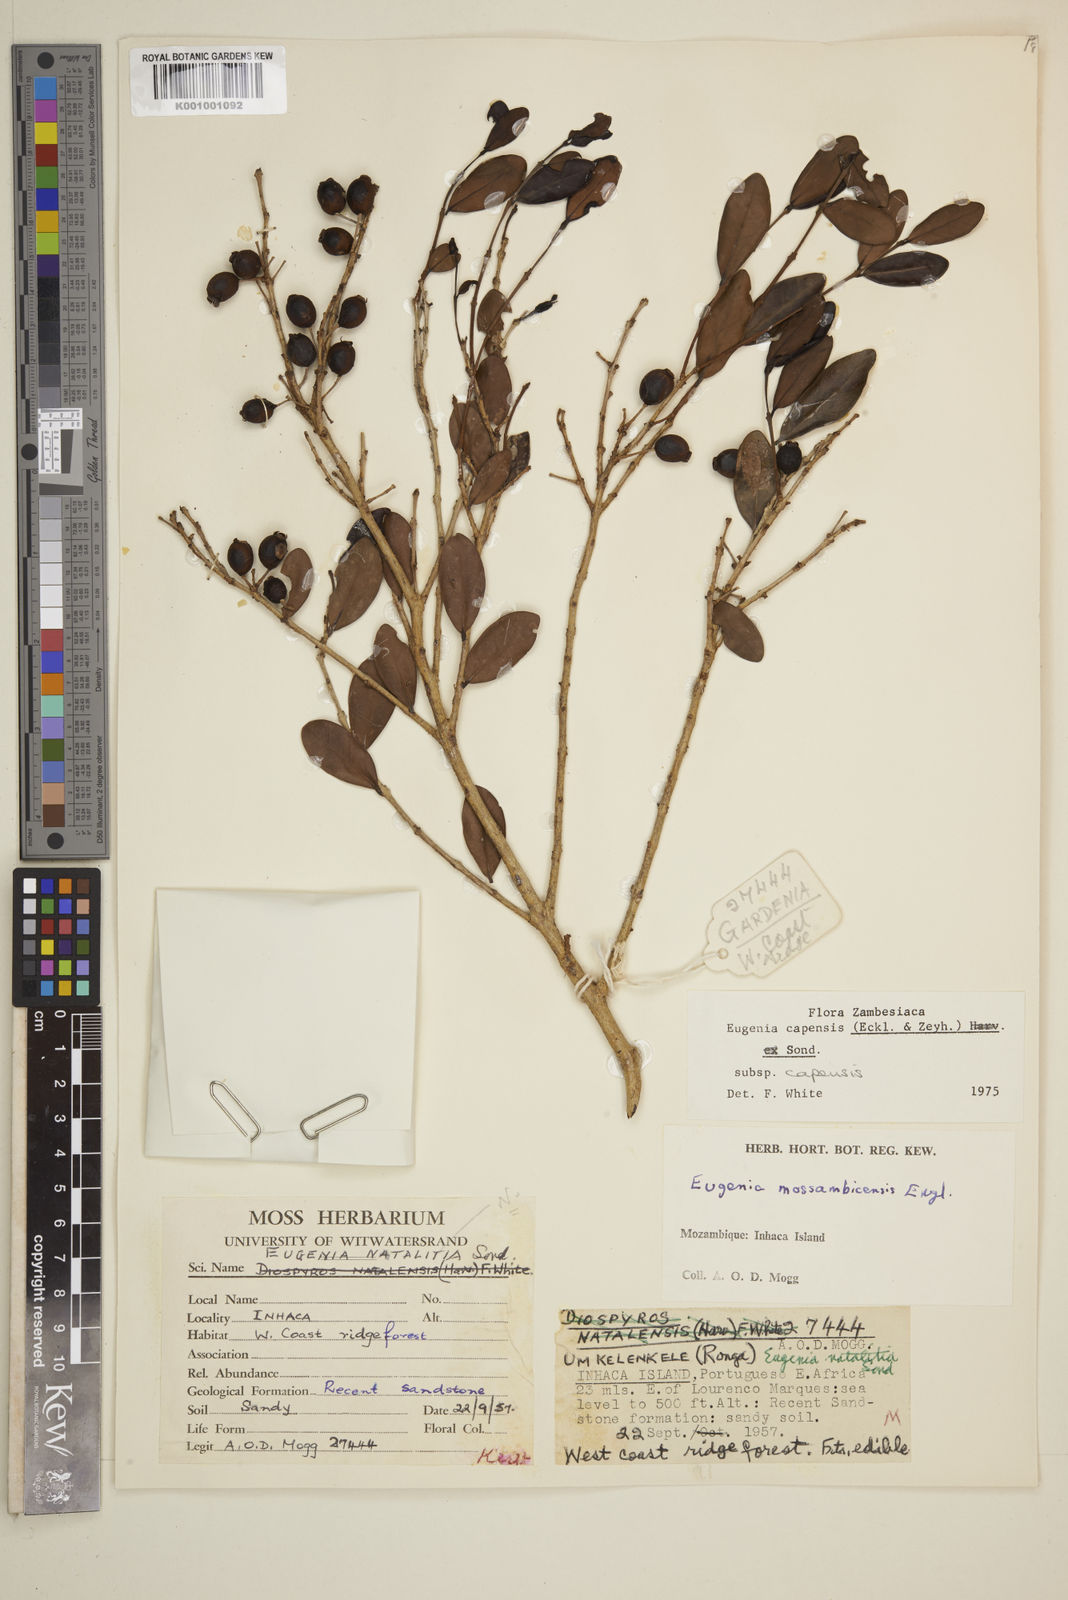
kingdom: Plantae
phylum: Tracheophyta
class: Magnoliopsida
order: Myrtales
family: Myrtaceae
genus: Eugenia
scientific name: Eugenia capensis
